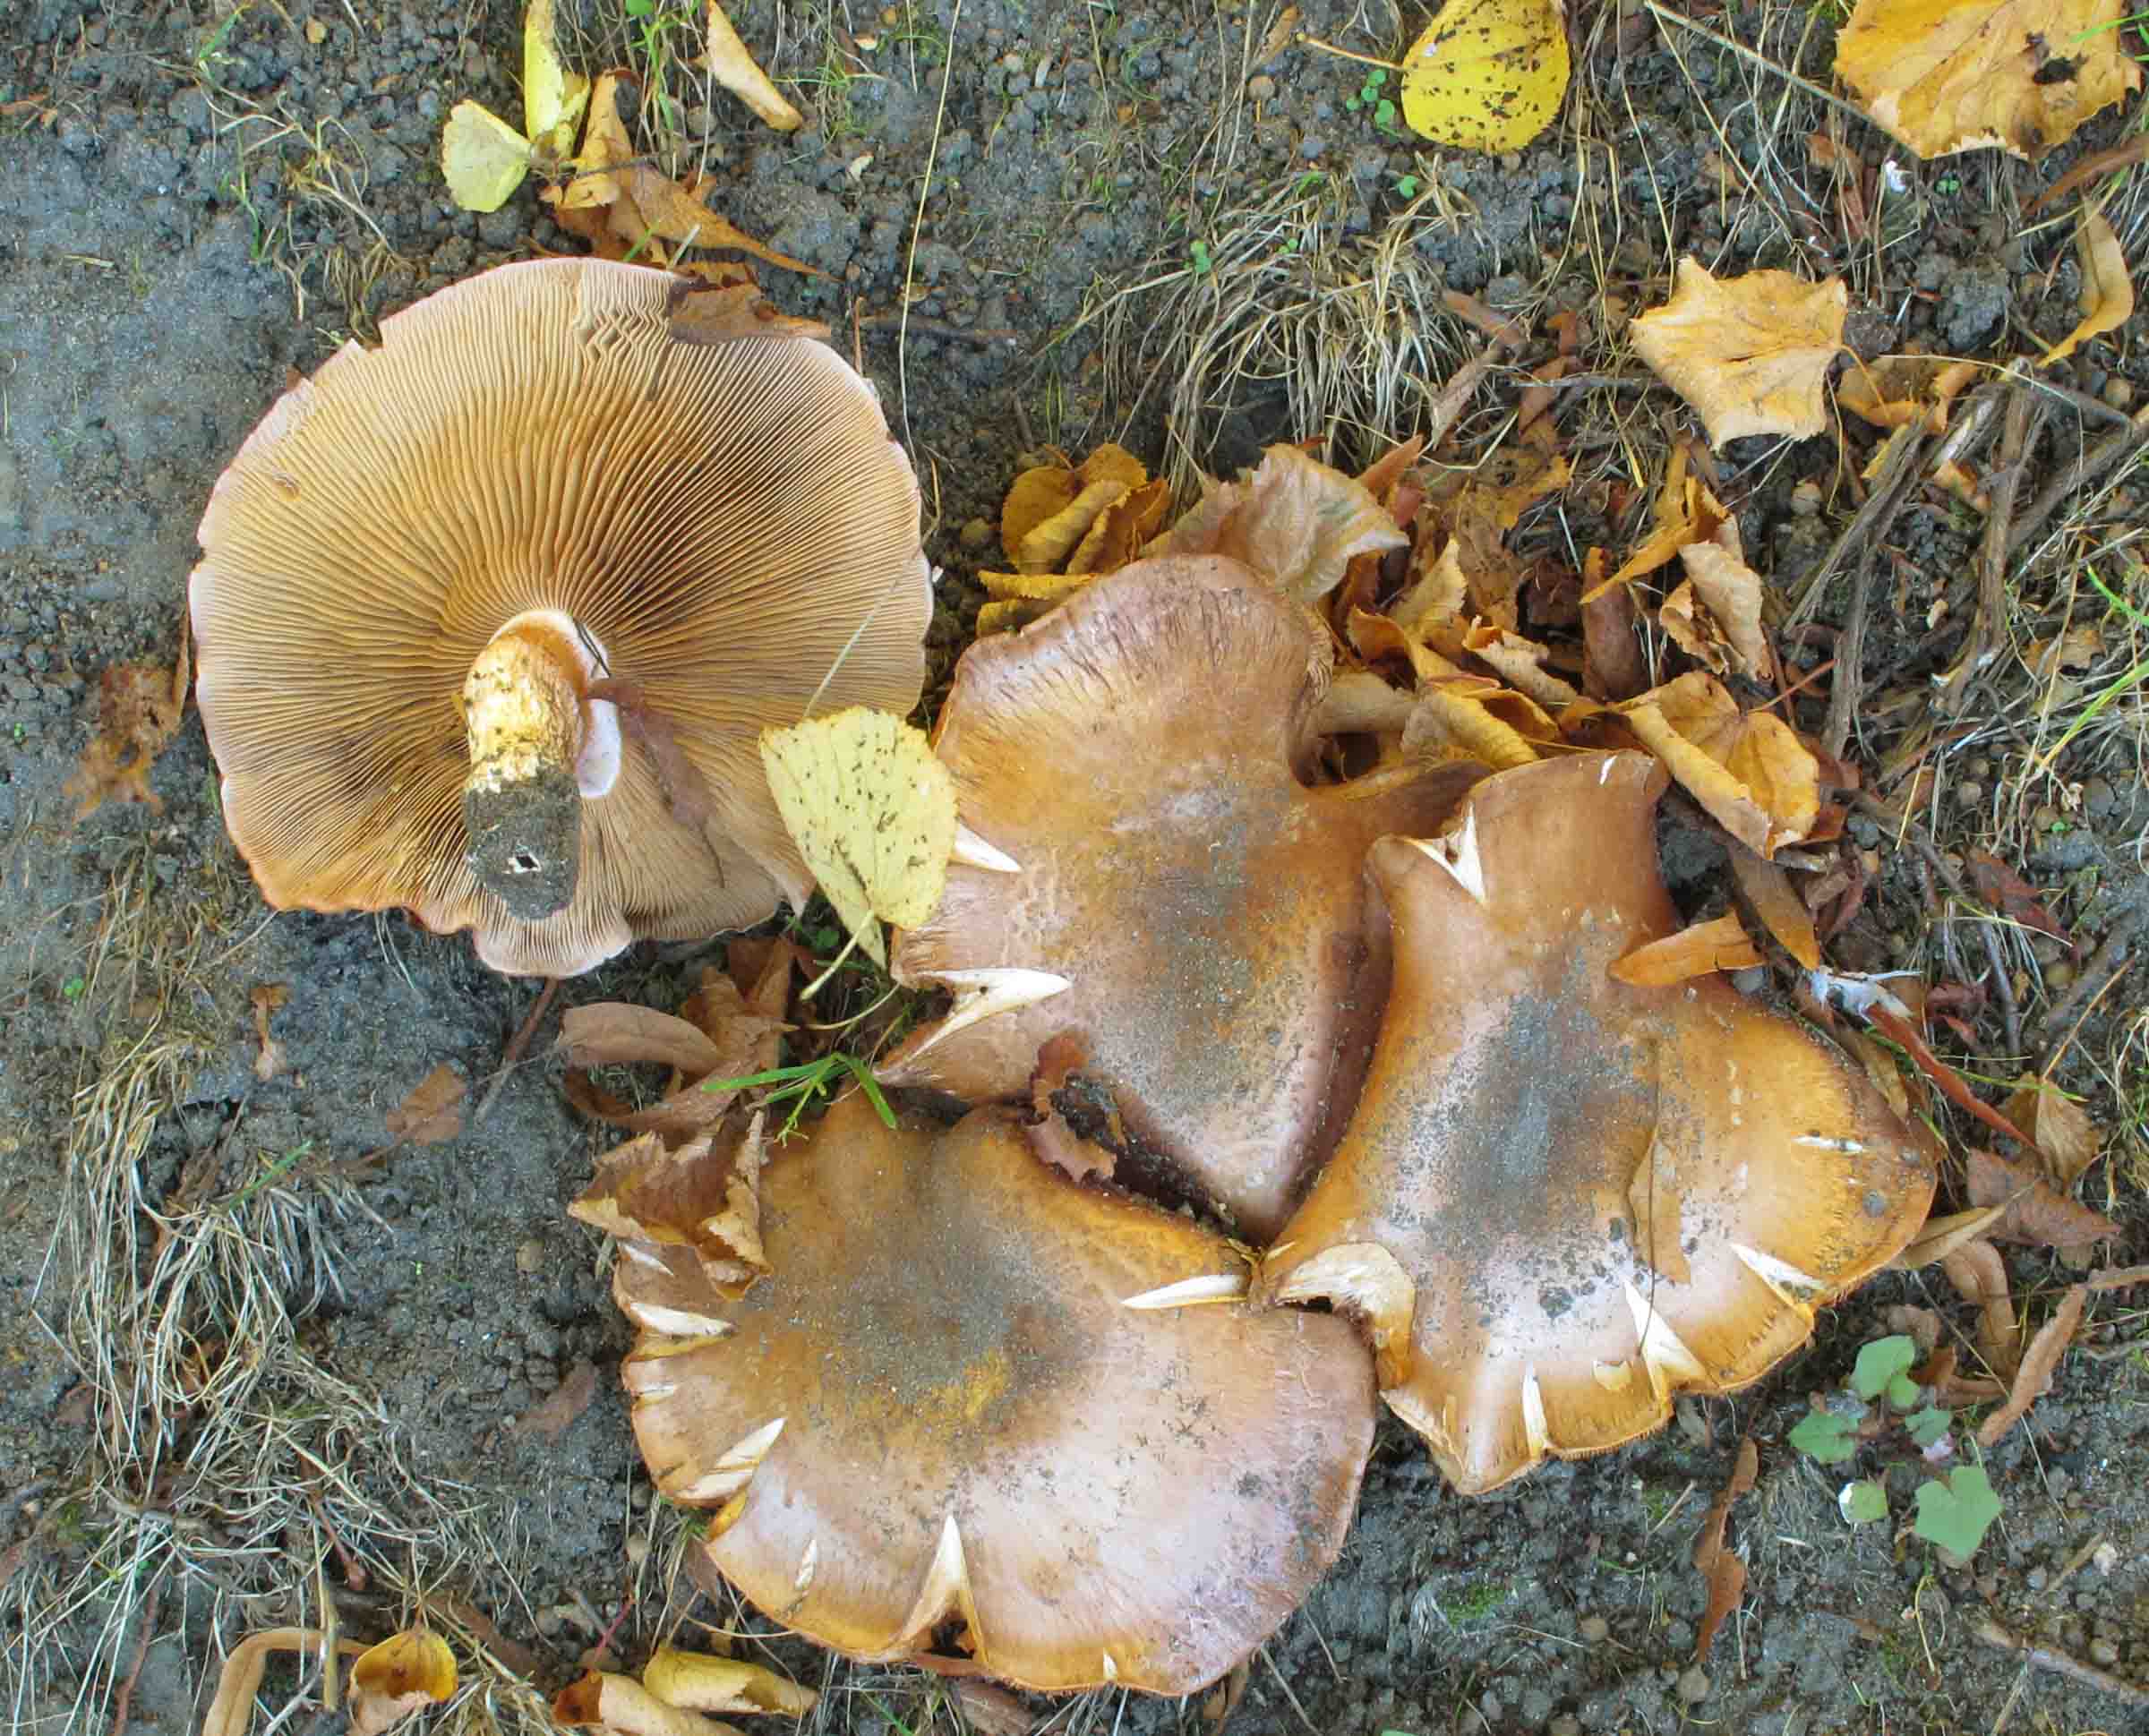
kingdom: Fungi
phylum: Basidiomycota
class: Agaricomycetes
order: Agaricales
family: Cortinariaceae
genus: Phlegmacium
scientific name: Phlegmacium balteatocumatile
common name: violettrådet slørhat
